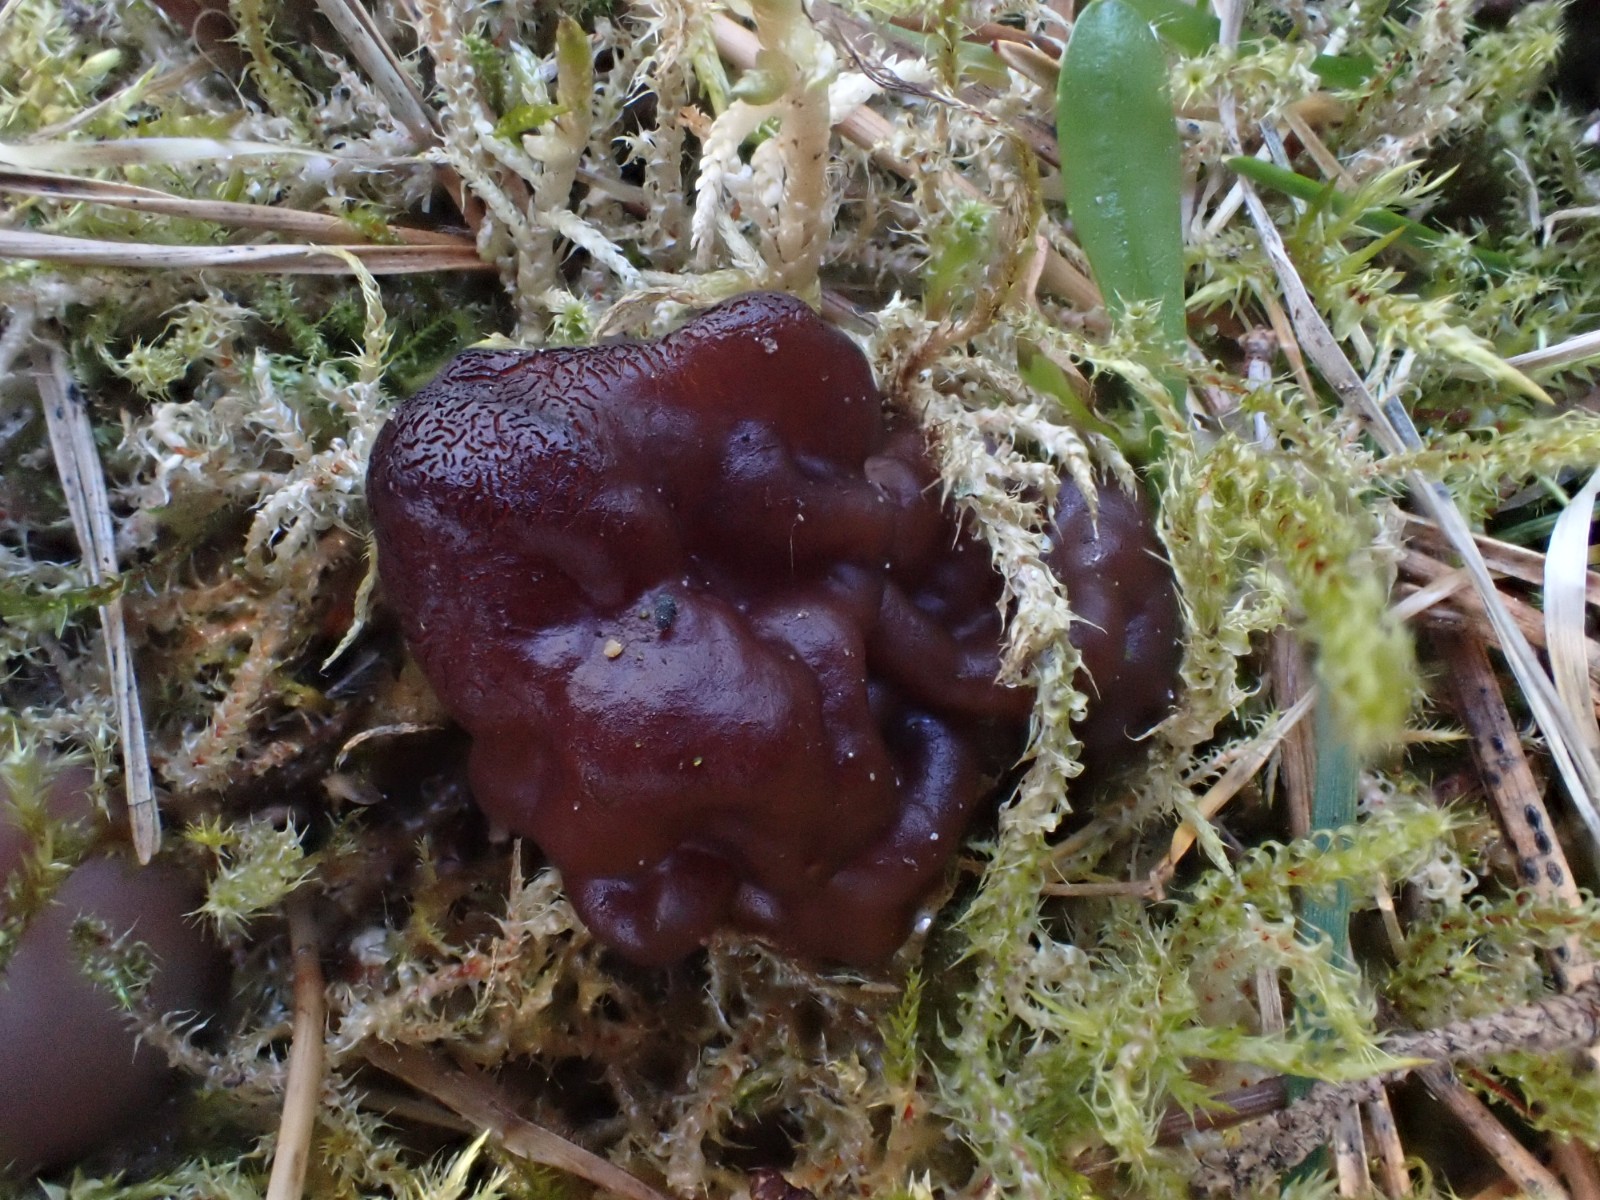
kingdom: Fungi
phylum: Ascomycota
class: Pezizomycetes
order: Pezizales
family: Discinaceae
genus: Gyromitra
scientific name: Gyromitra esculenta
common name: ægte stenmorkel
